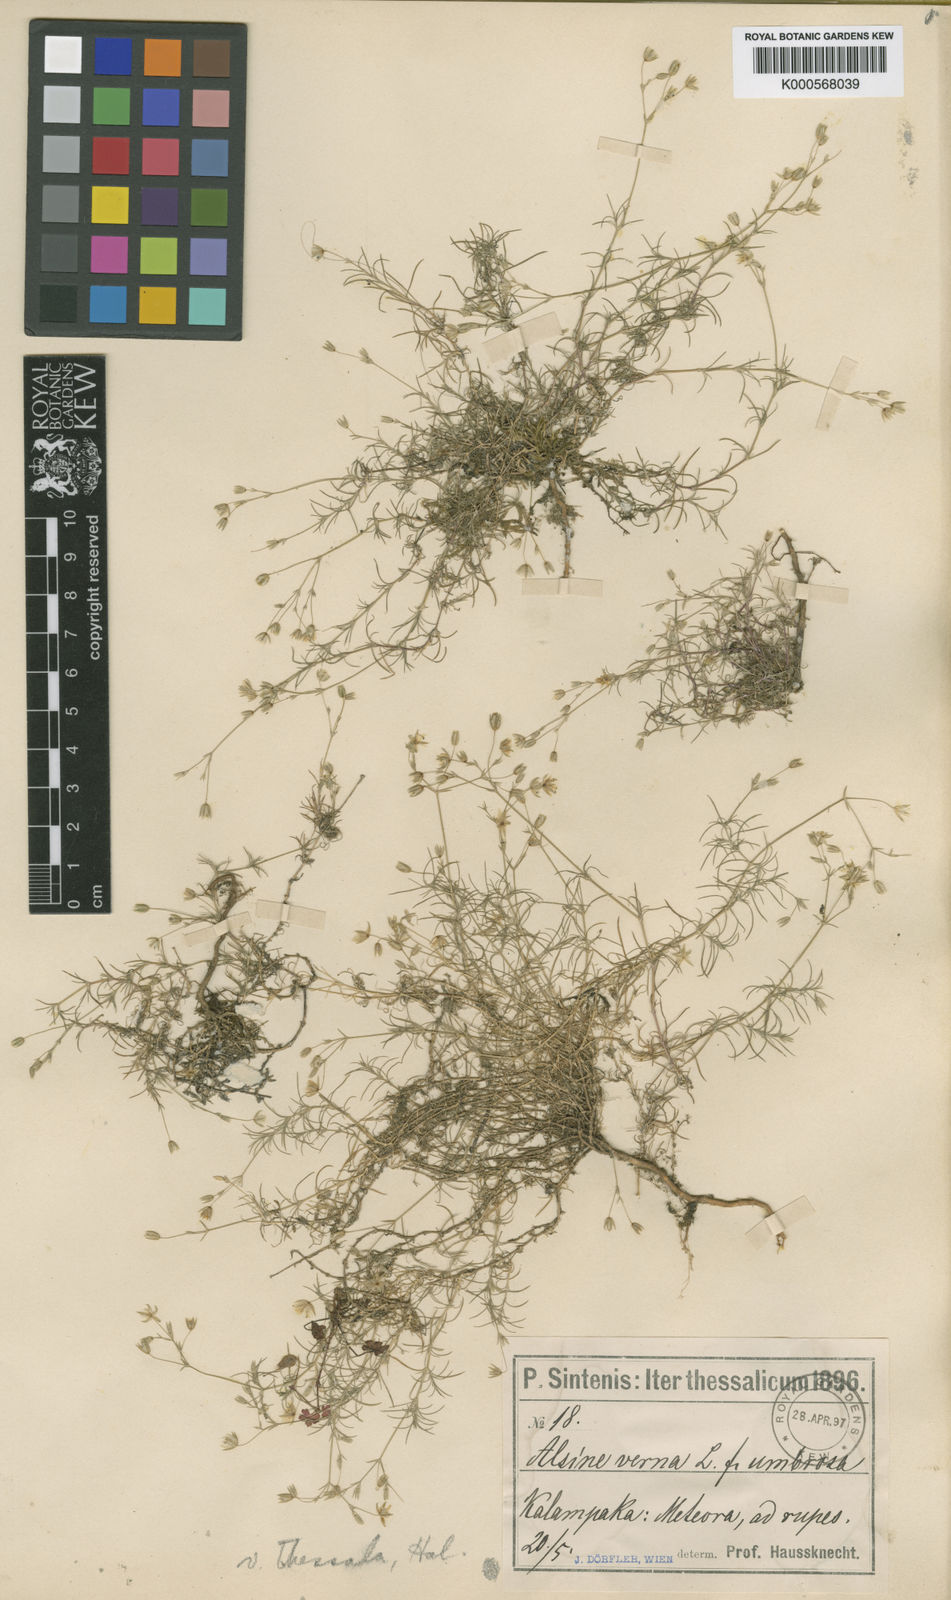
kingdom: Plantae
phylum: Tracheophyta
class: Magnoliopsida
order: Caryophyllales
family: Caryophyllaceae
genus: Sabulina
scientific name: Sabulina verna
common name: Spring sandwort
